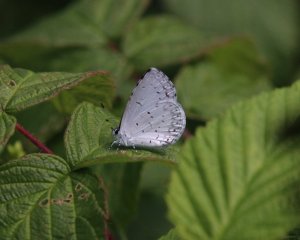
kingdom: Animalia
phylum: Arthropoda
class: Insecta
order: Lepidoptera
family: Lycaenidae
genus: Cyaniris
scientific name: Cyaniris neglecta
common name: Summer Azure
